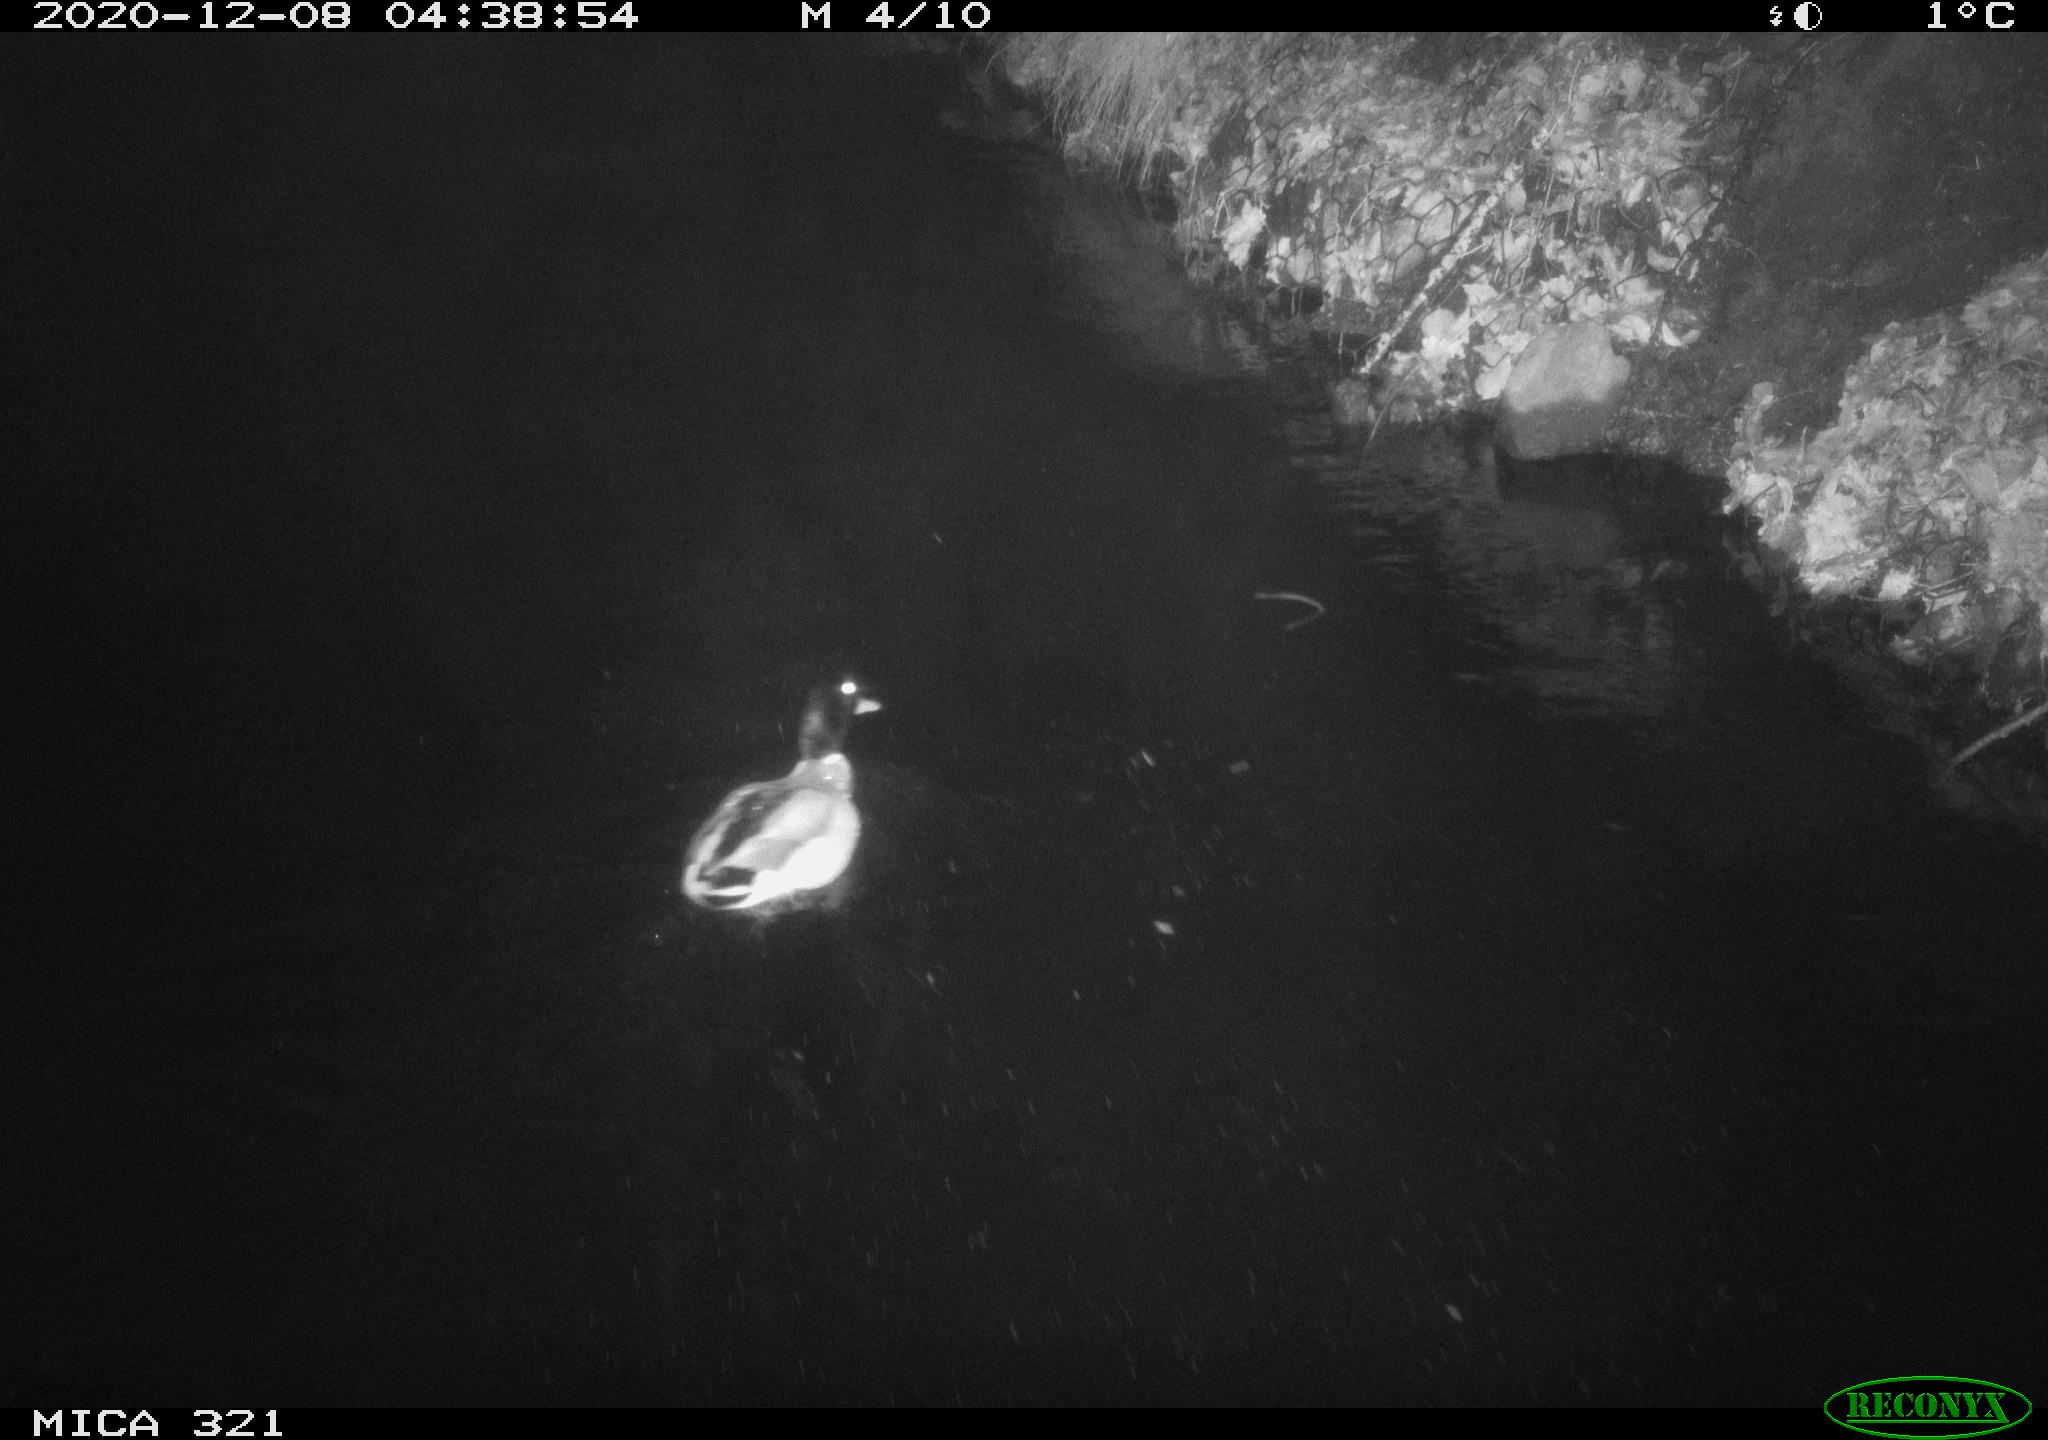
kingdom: Animalia
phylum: Chordata
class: Aves
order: Anseriformes
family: Anatidae
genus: Anas
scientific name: Anas platyrhynchos
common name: Mallard
